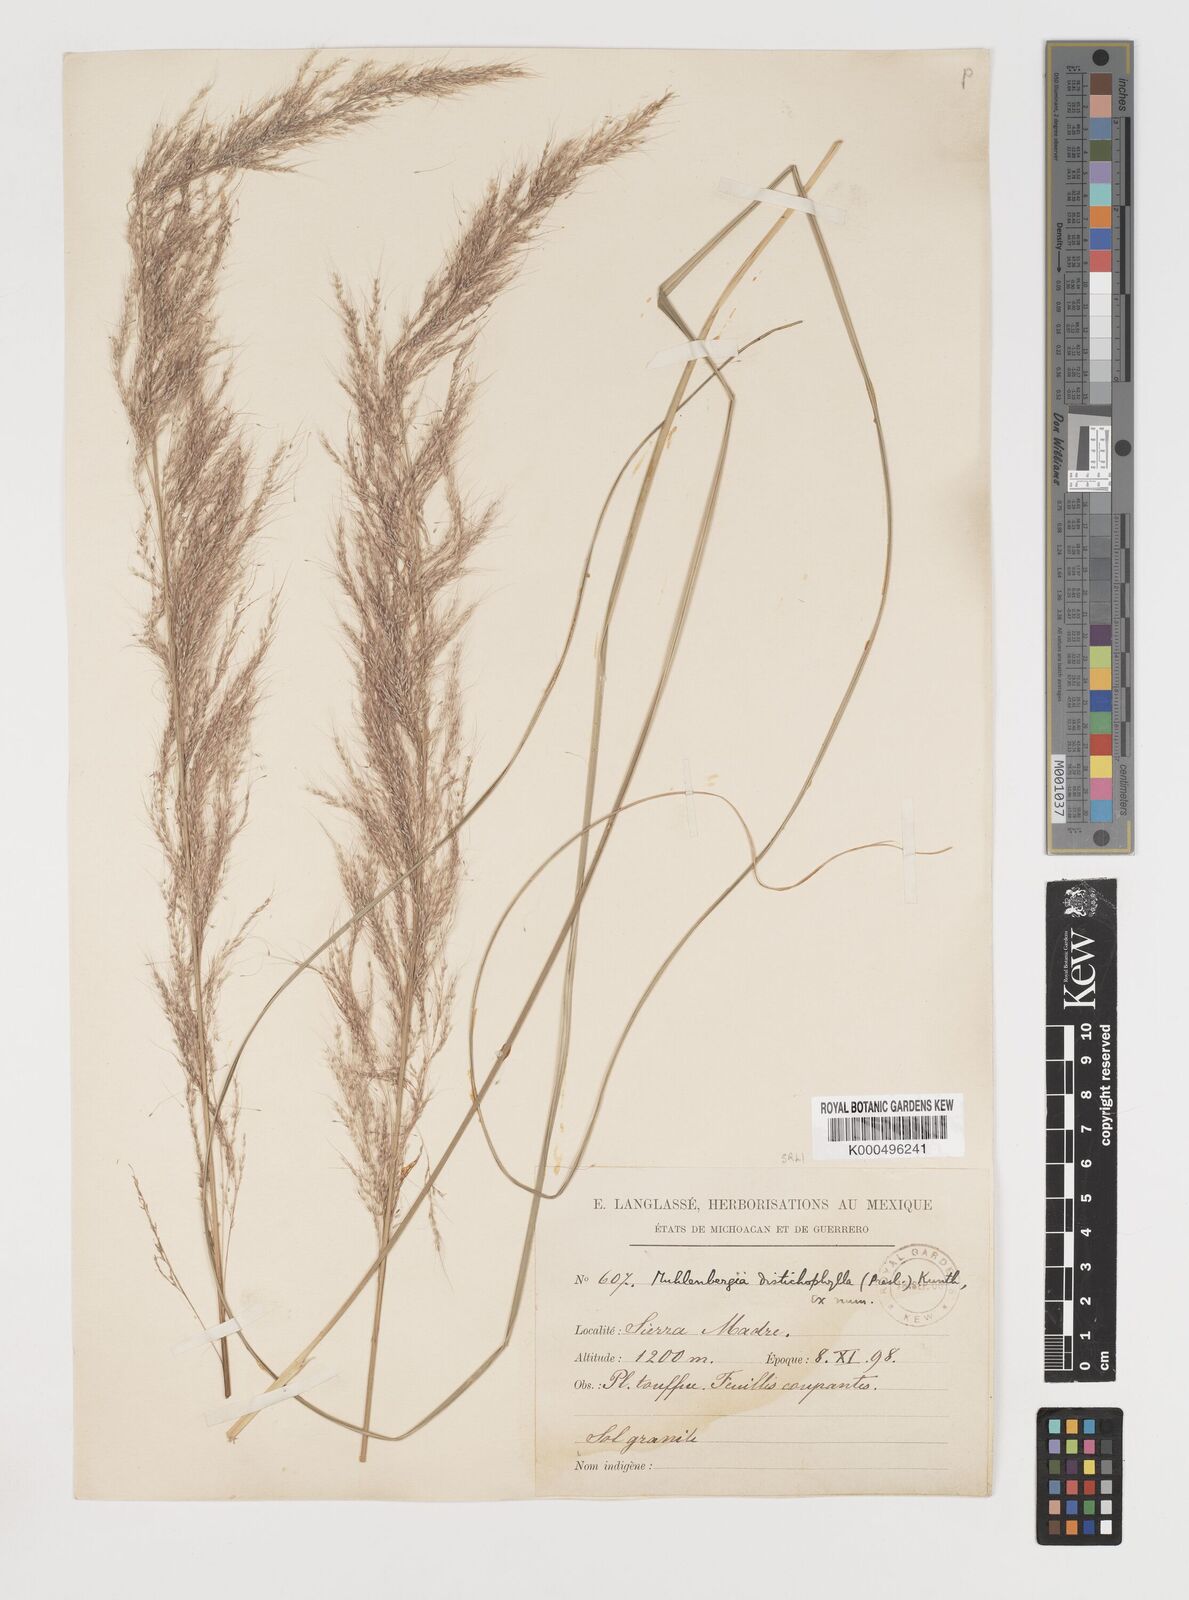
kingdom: Plantae
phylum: Tracheophyta
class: Liliopsida
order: Poales
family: Poaceae
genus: Muhlenbergia
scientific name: Muhlenbergia
